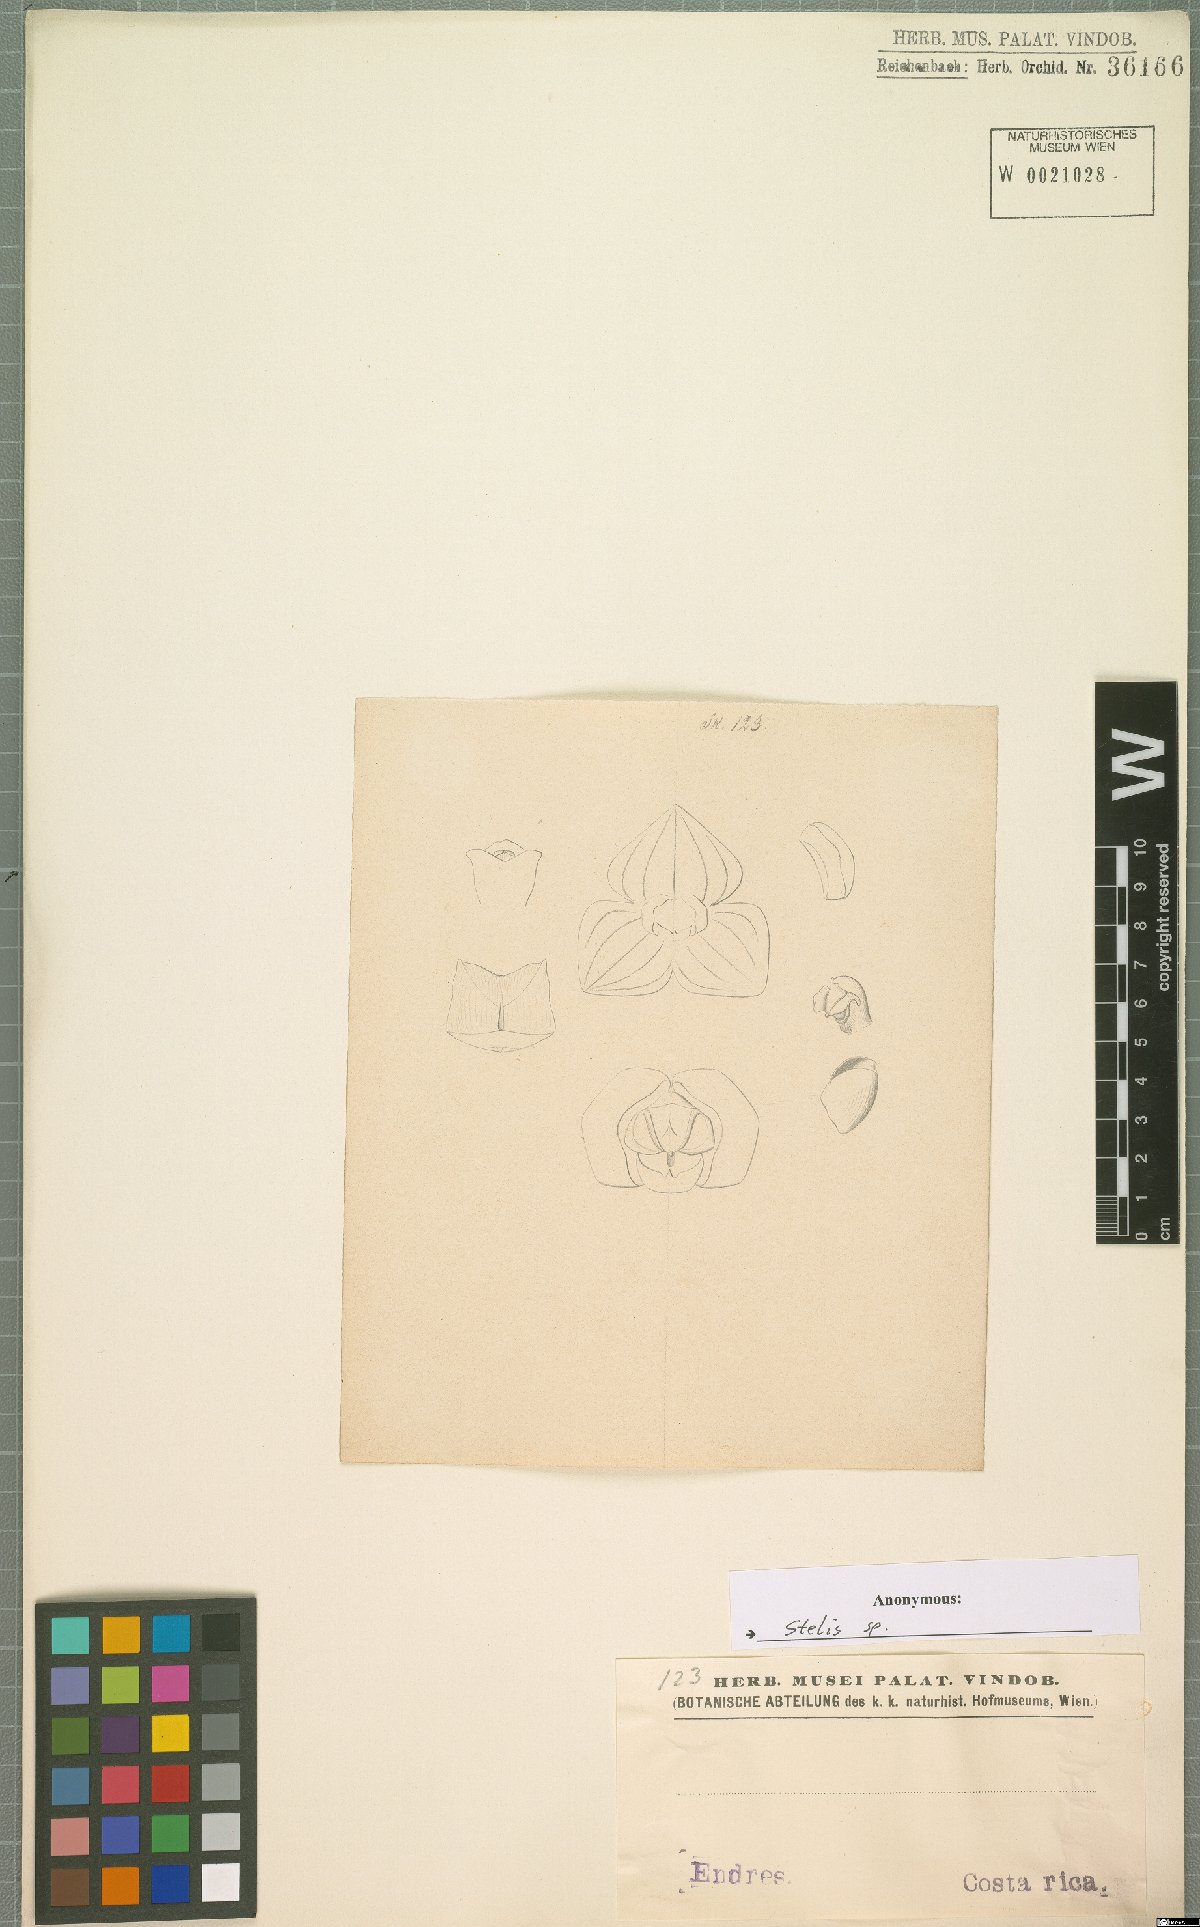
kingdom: Plantae
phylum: Tracheophyta
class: Liliopsida
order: Asparagales
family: Orchidaceae
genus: Stelis
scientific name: Stelis
